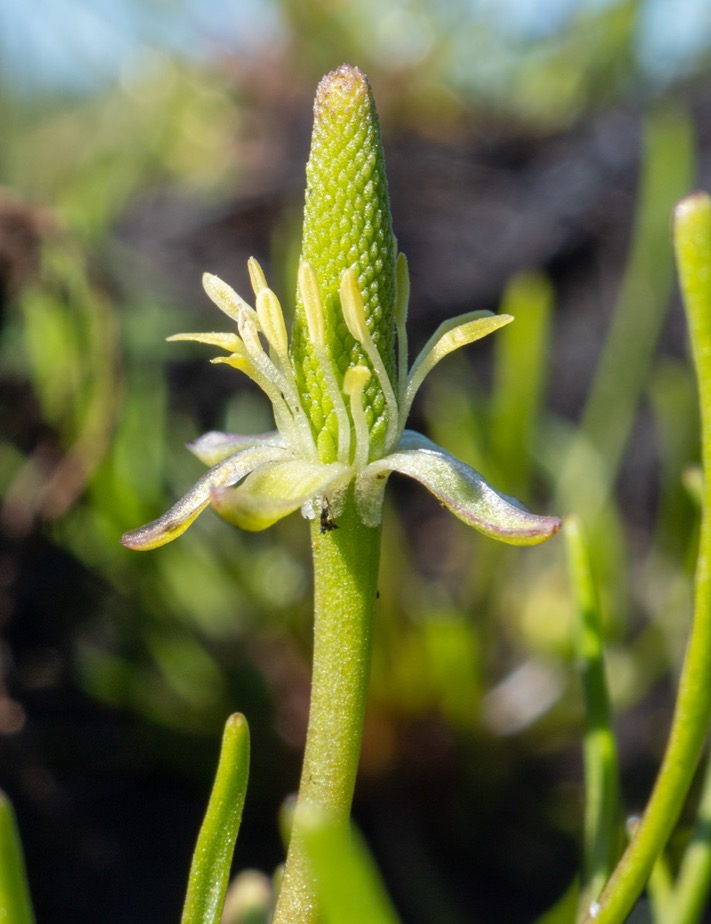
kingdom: Plantae
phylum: Tracheophyta
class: Magnoliopsida
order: Ranunculales
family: Ranunculaceae
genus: Myosurus
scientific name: Myosurus minimus
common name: Musehale
